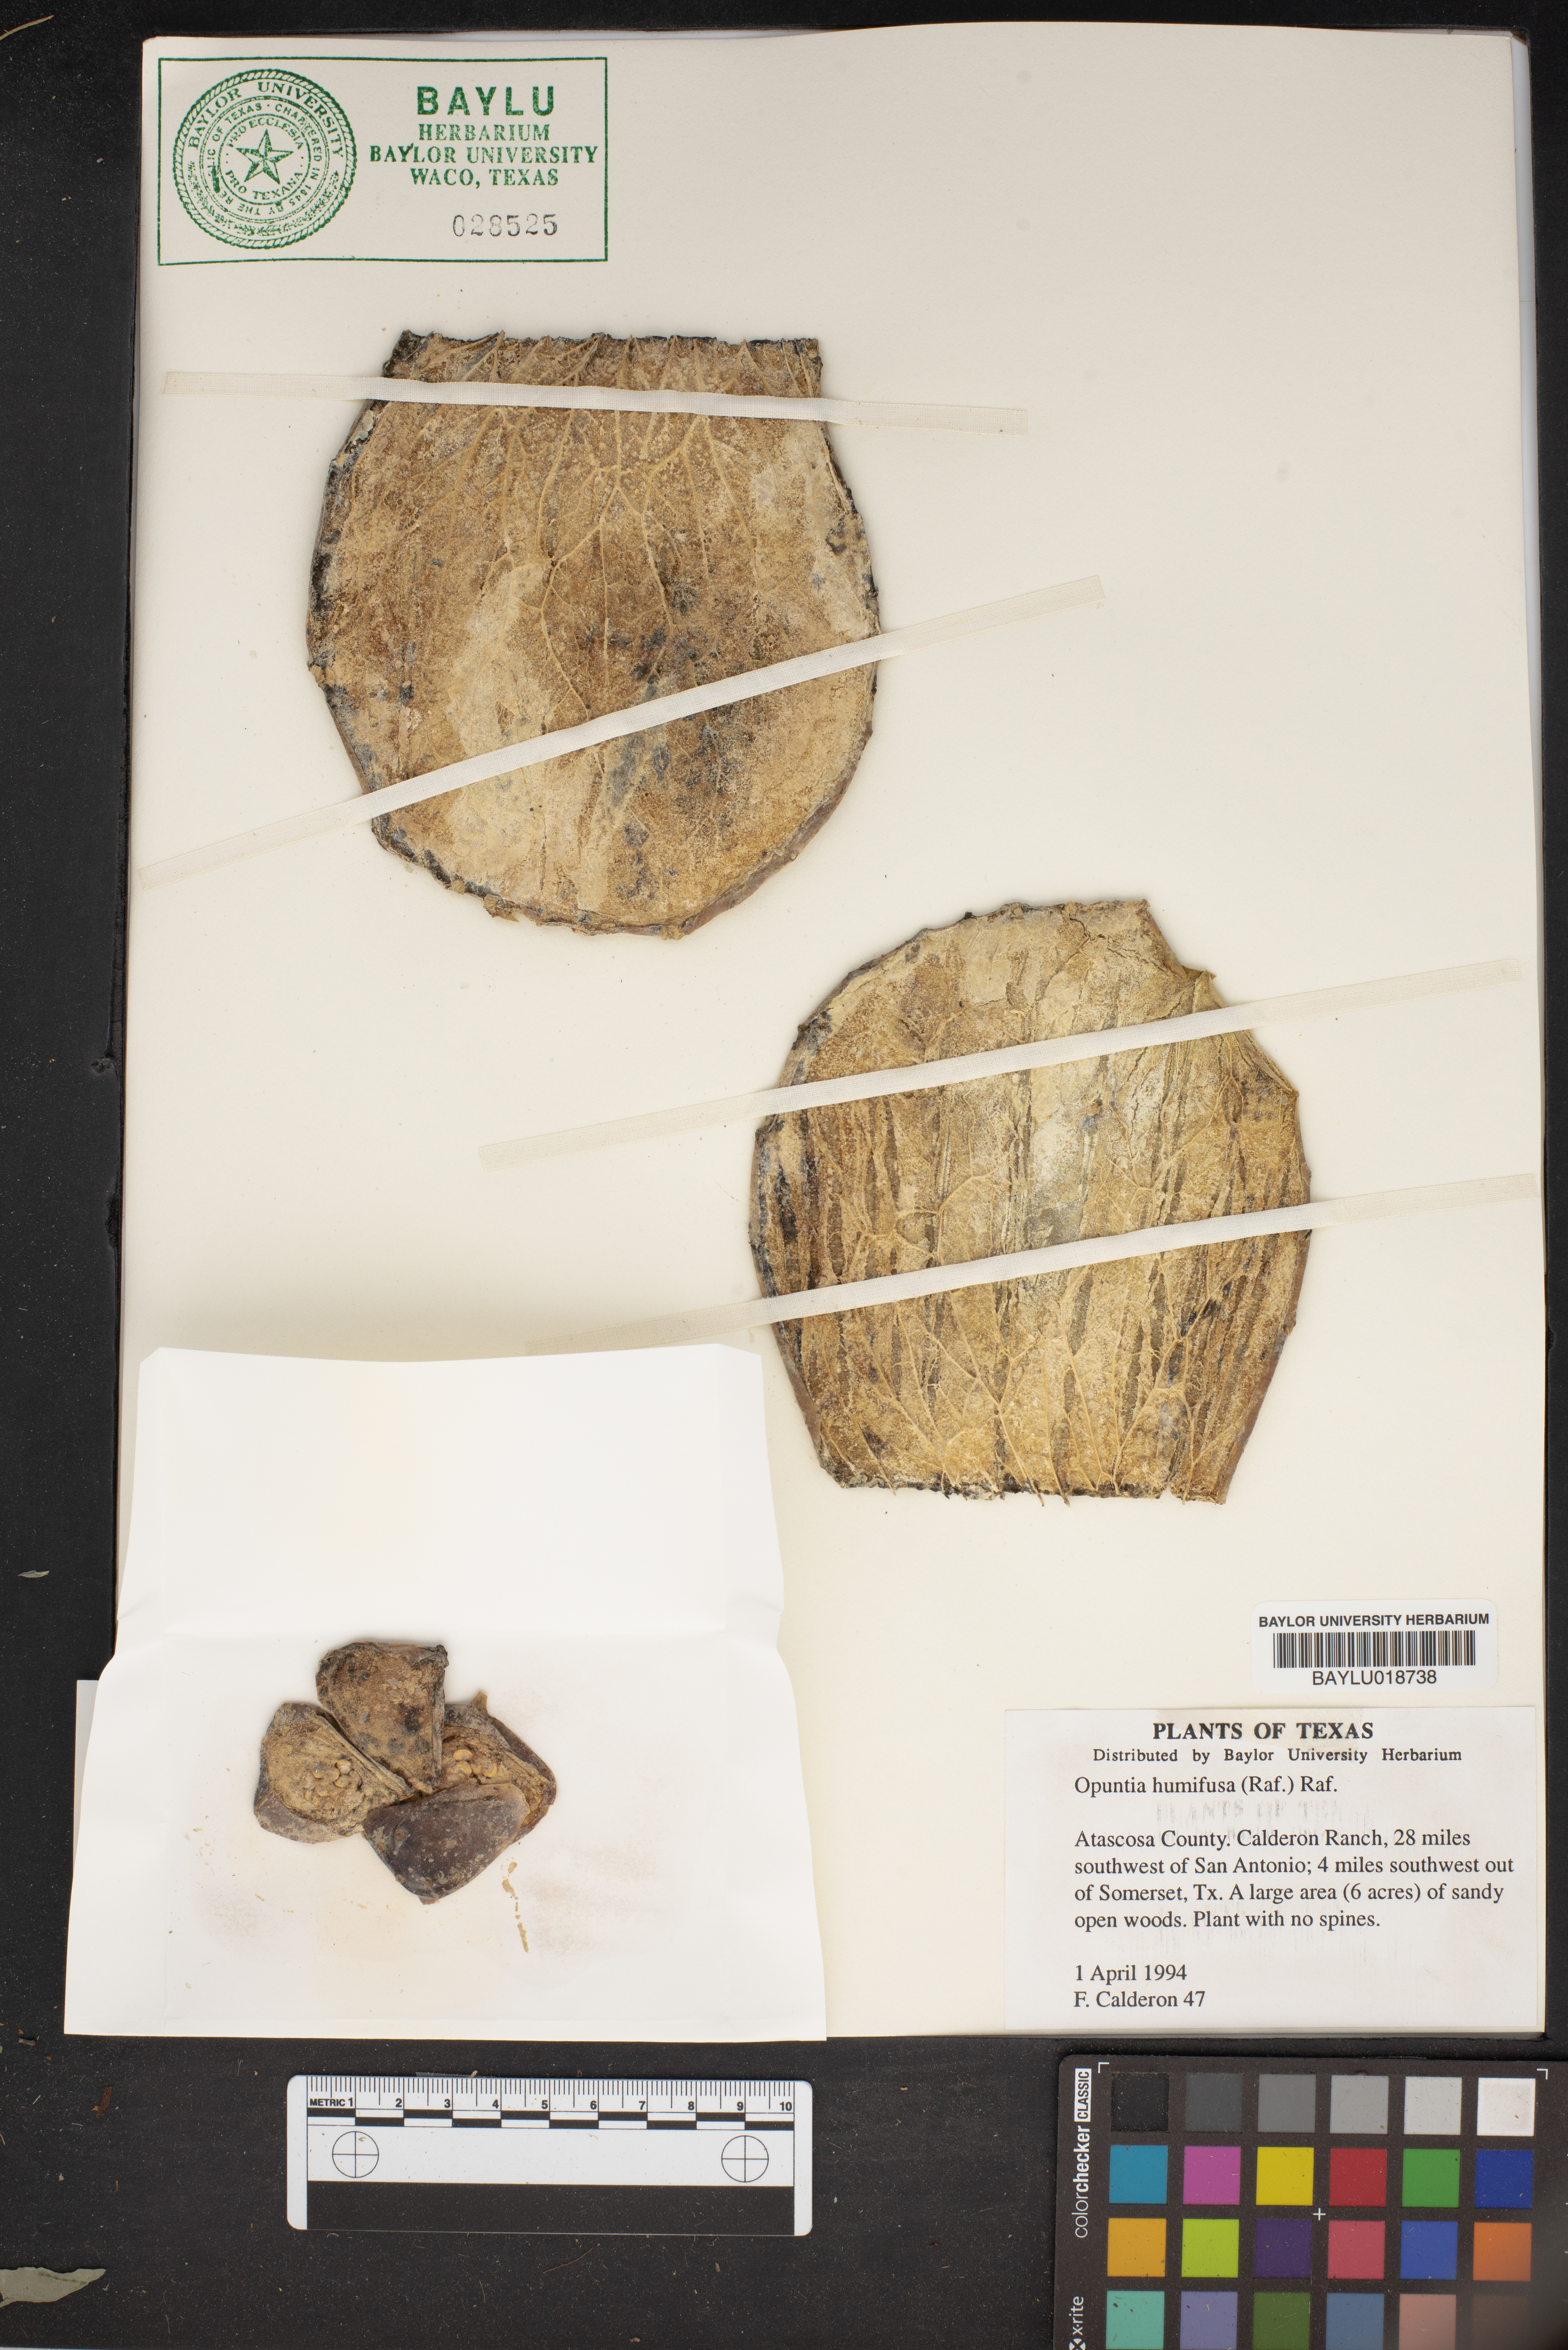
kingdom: Plantae
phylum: Tracheophyta
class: Magnoliopsida
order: Caryophyllales
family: Cactaceae
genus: Opuntia
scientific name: Opuntia humifusa
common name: Eastern prickly-pear
